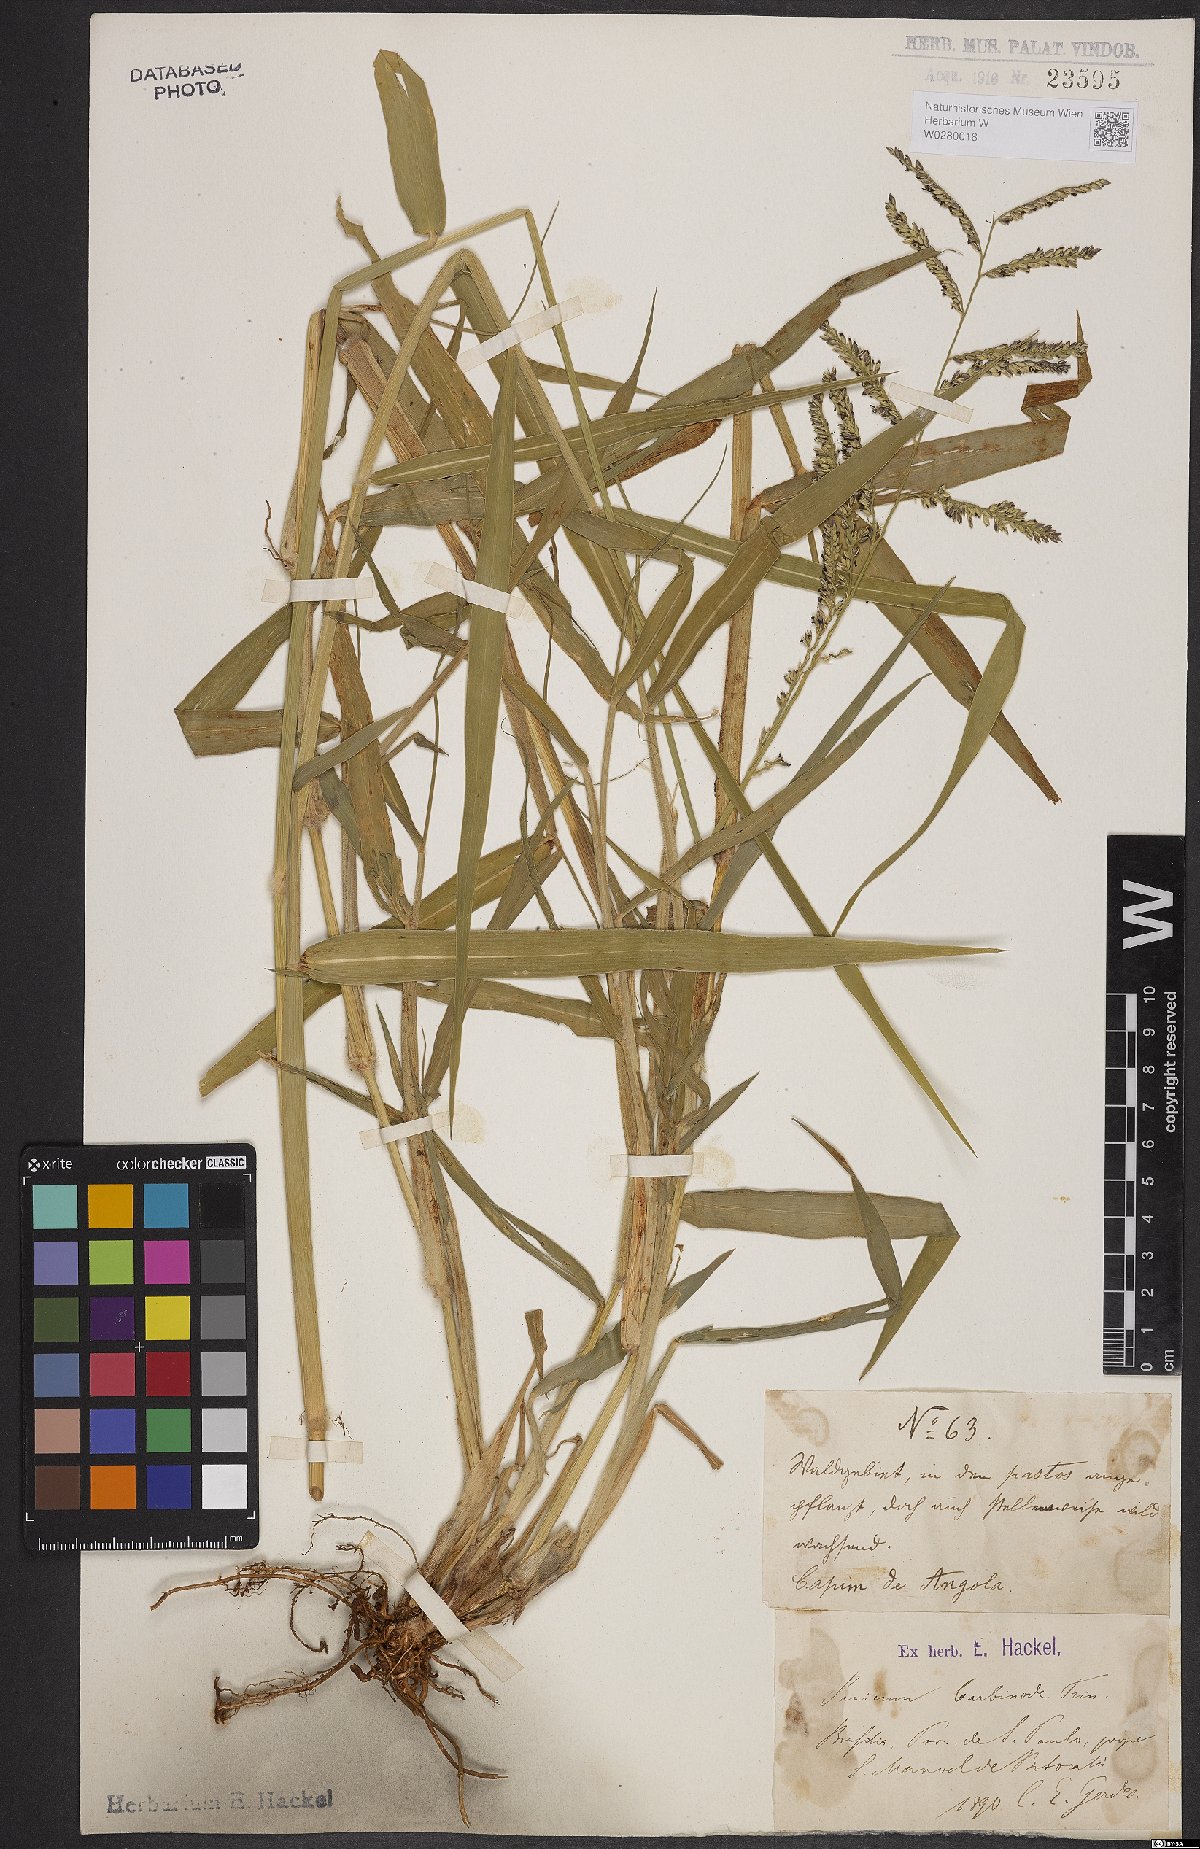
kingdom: Plantae
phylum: Tracheophyta
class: Liliopsida
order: Poales
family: Poaceae
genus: Urochloa
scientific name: Urochloa mutica
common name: Para grass
